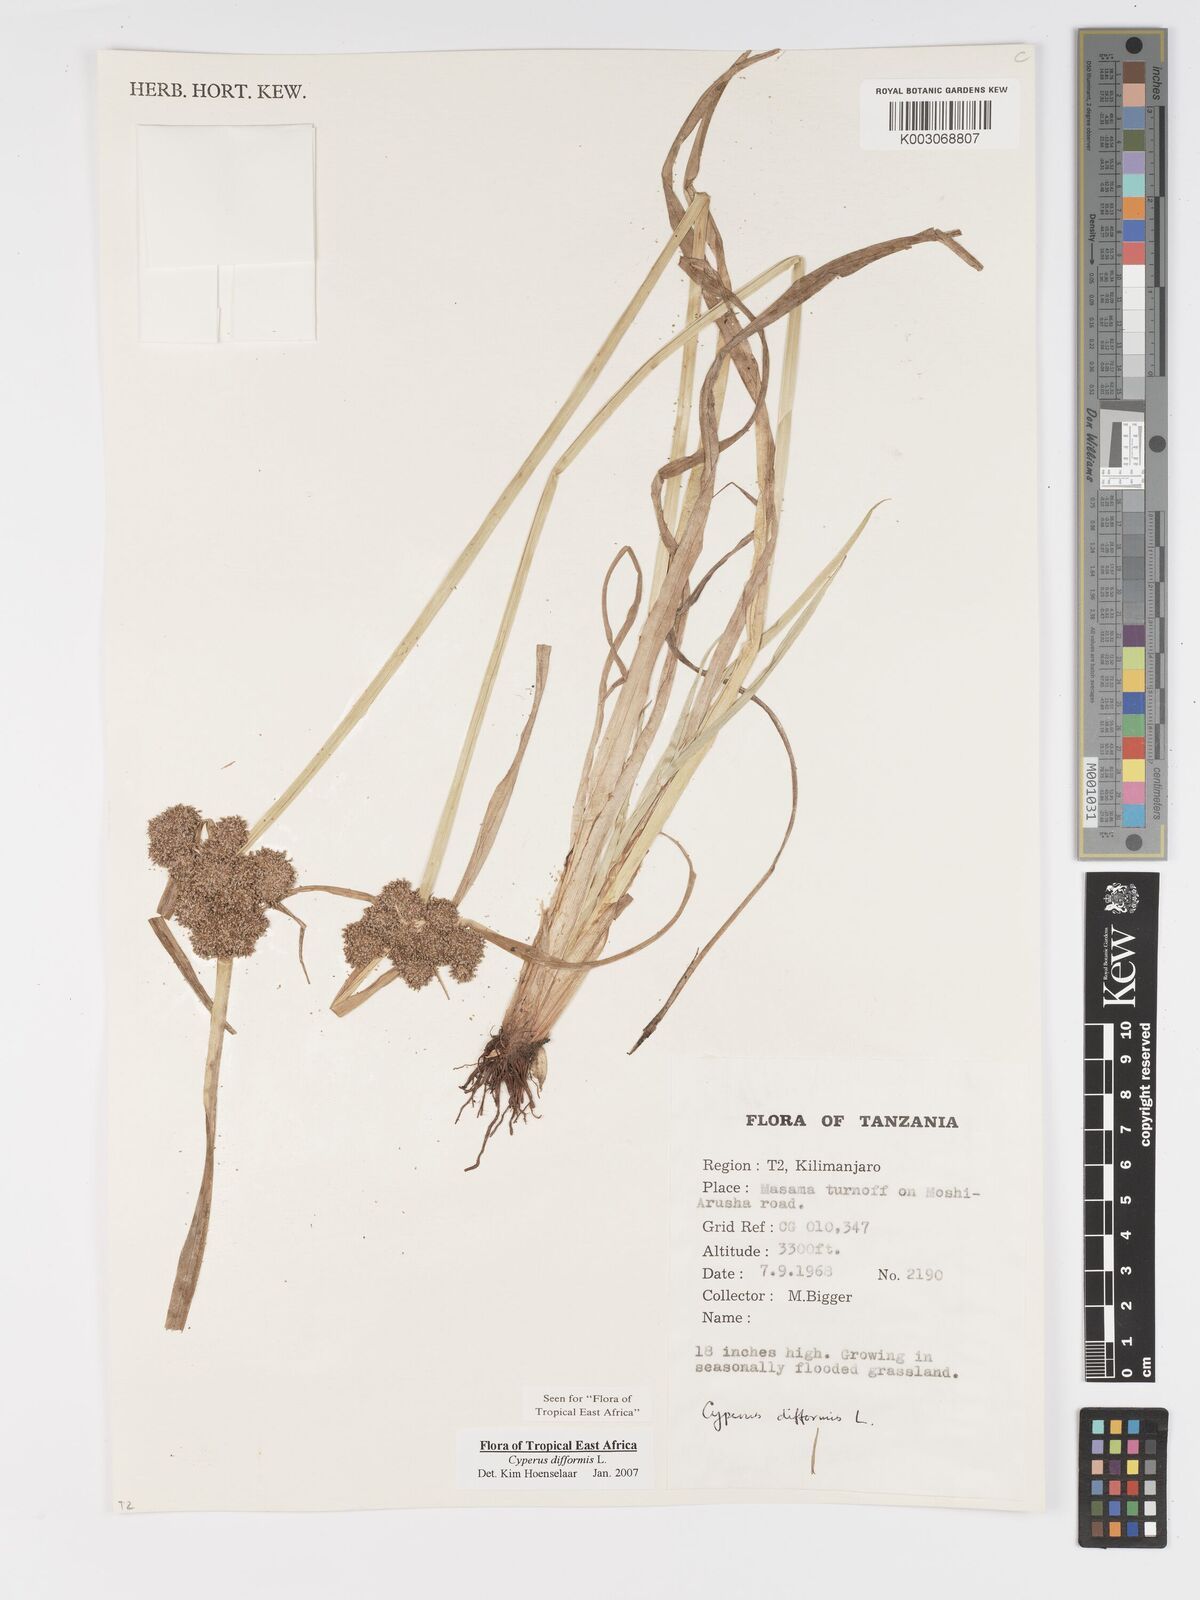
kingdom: Plantae
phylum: Tracheophyta
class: Liliopsida
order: Poales
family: Cyperaceae
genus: Cyperus
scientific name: Cyperus difformis
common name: Variable flatsedge
